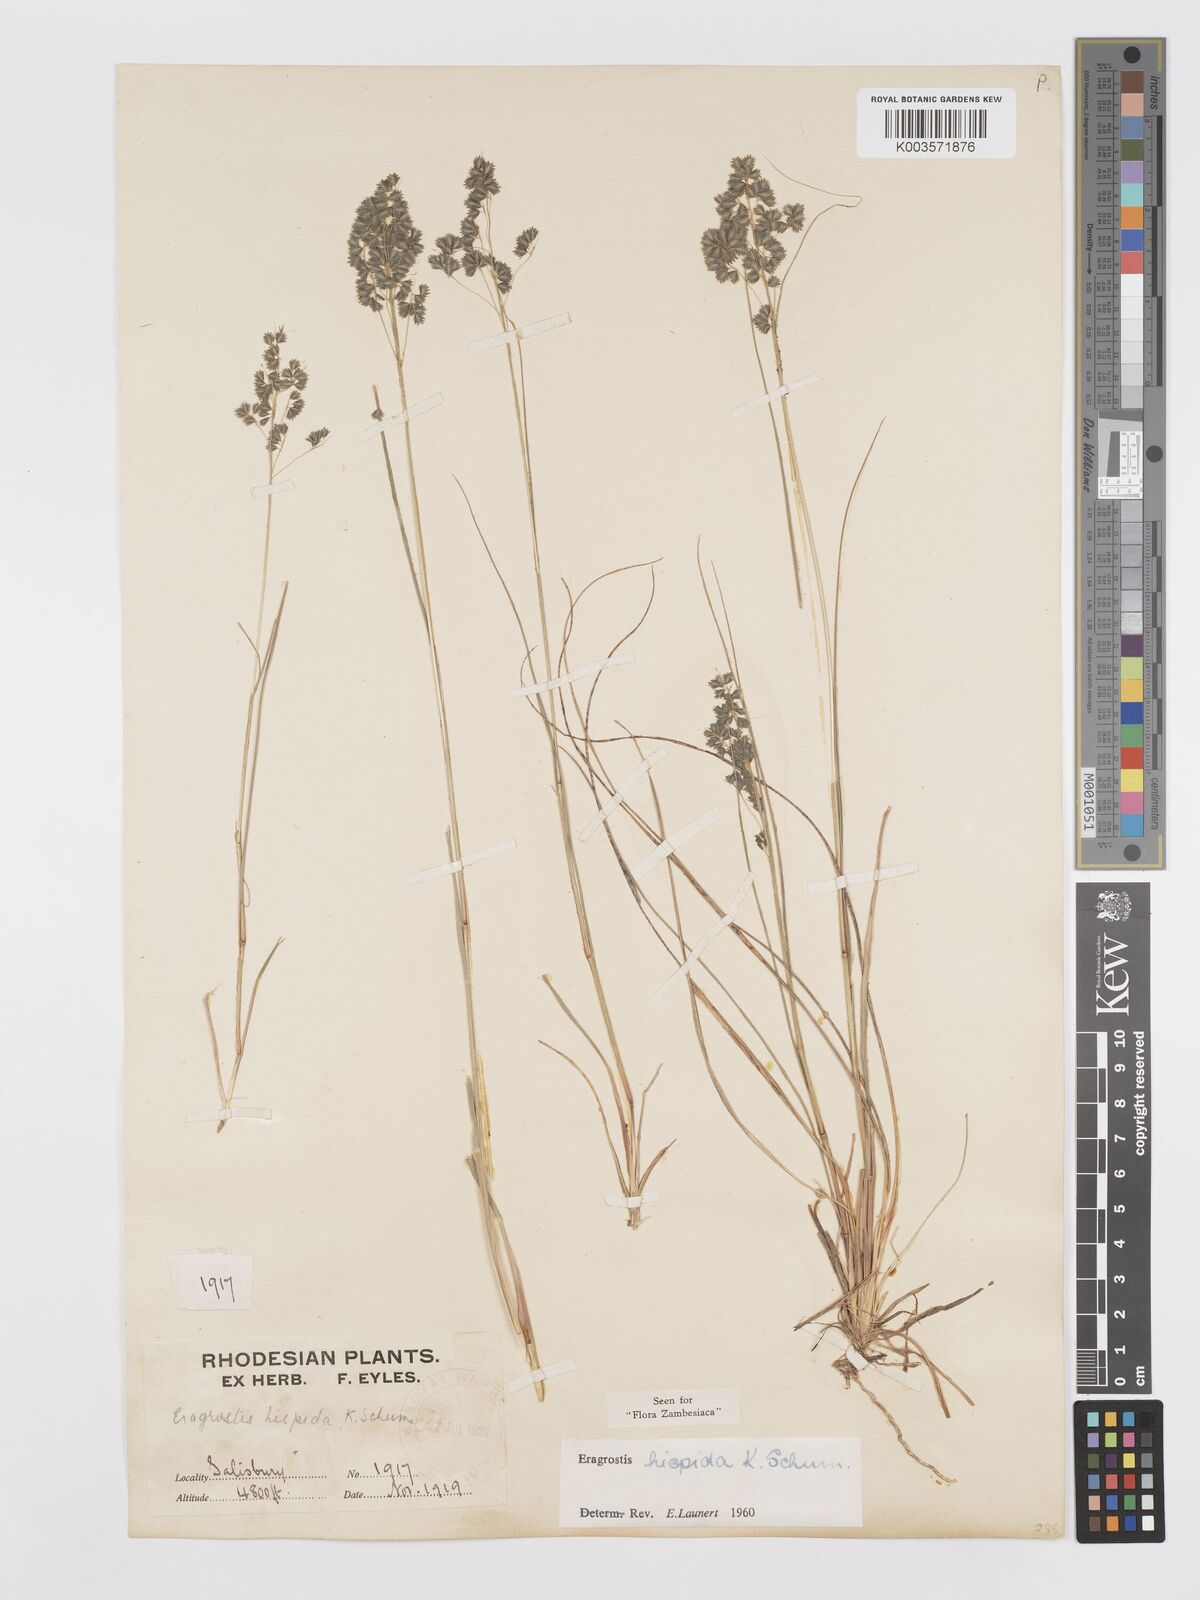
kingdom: Plantae
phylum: Tracheophyta
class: Liliopsida
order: Poales
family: Poaceae
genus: Eragrostis
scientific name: Eragrostis hispida
